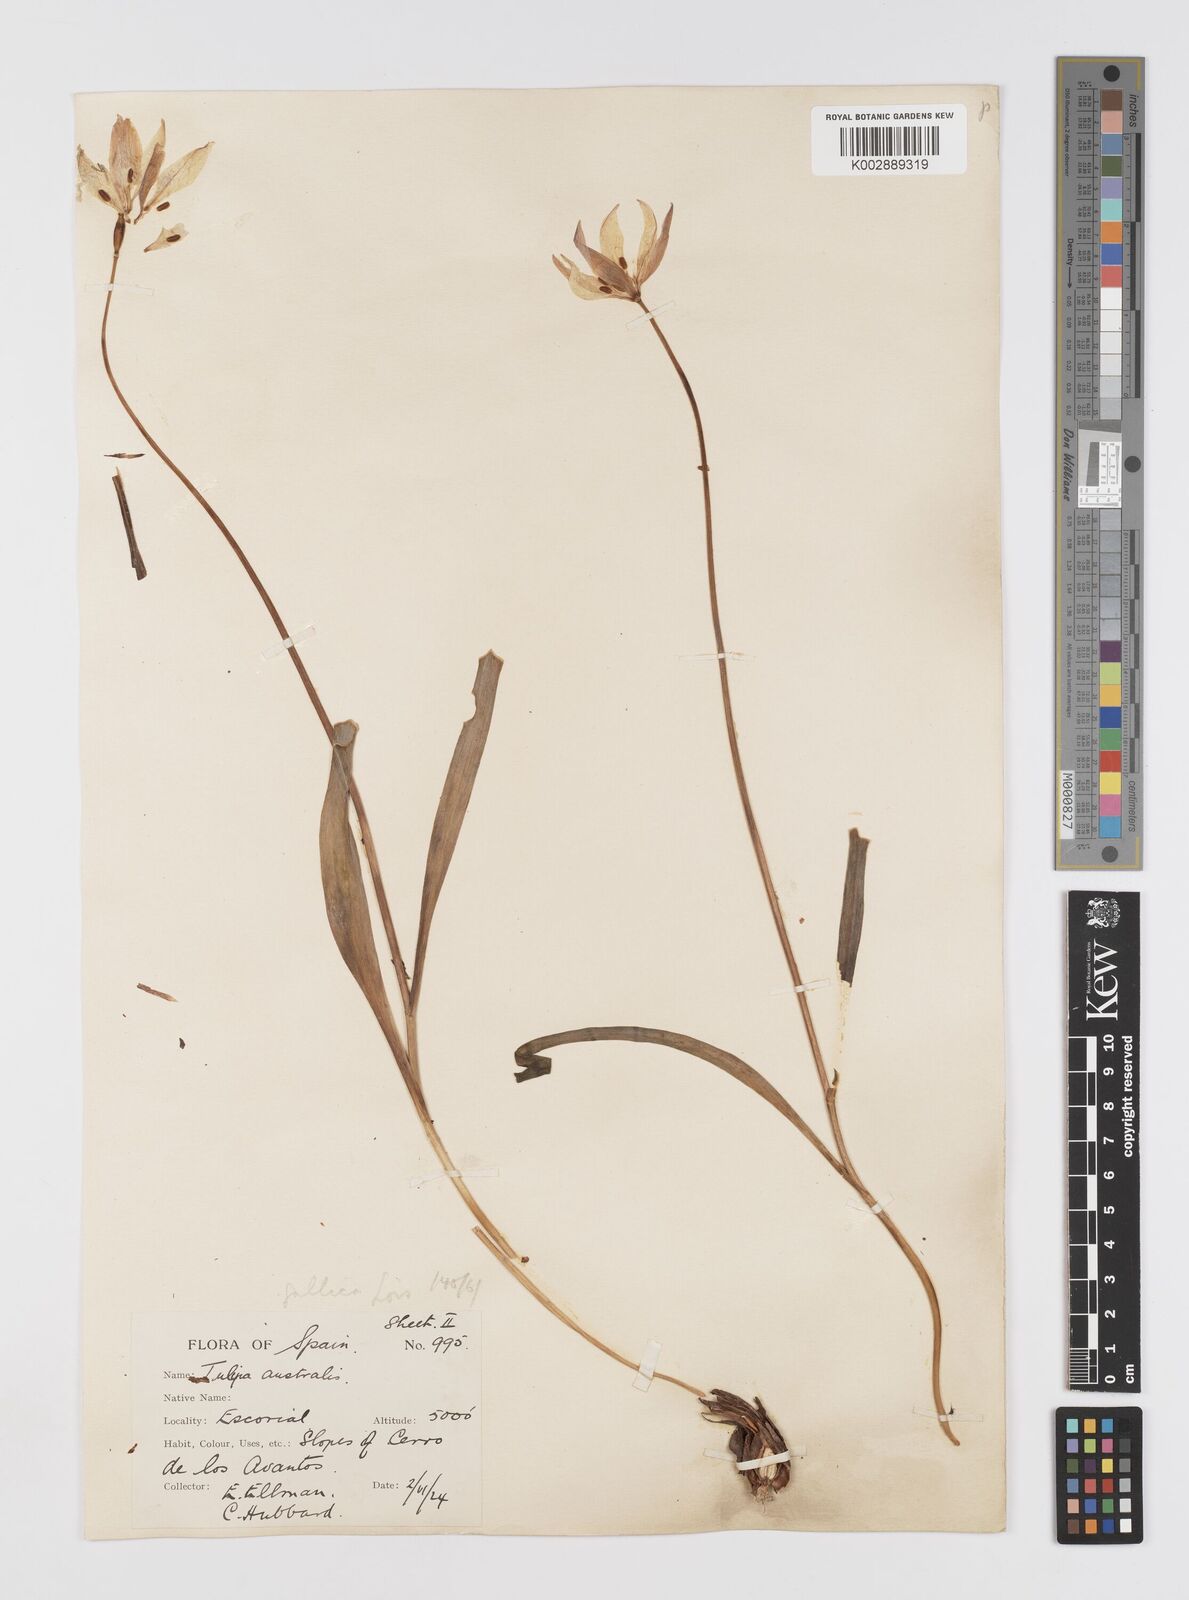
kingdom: Plantae
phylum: Tracheophyta
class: Liliopsida
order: Liliales
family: Liliaceae
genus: Tulipa
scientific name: Tulipa sylvestris
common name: Wild tulip
